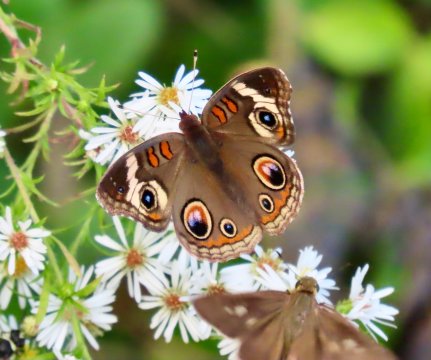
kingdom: Animalia
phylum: Arthropoda
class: Insecta
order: Lepidoptera
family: Nymphalidae
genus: Junonia
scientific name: Junonia coenia
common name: Common Buckeye
